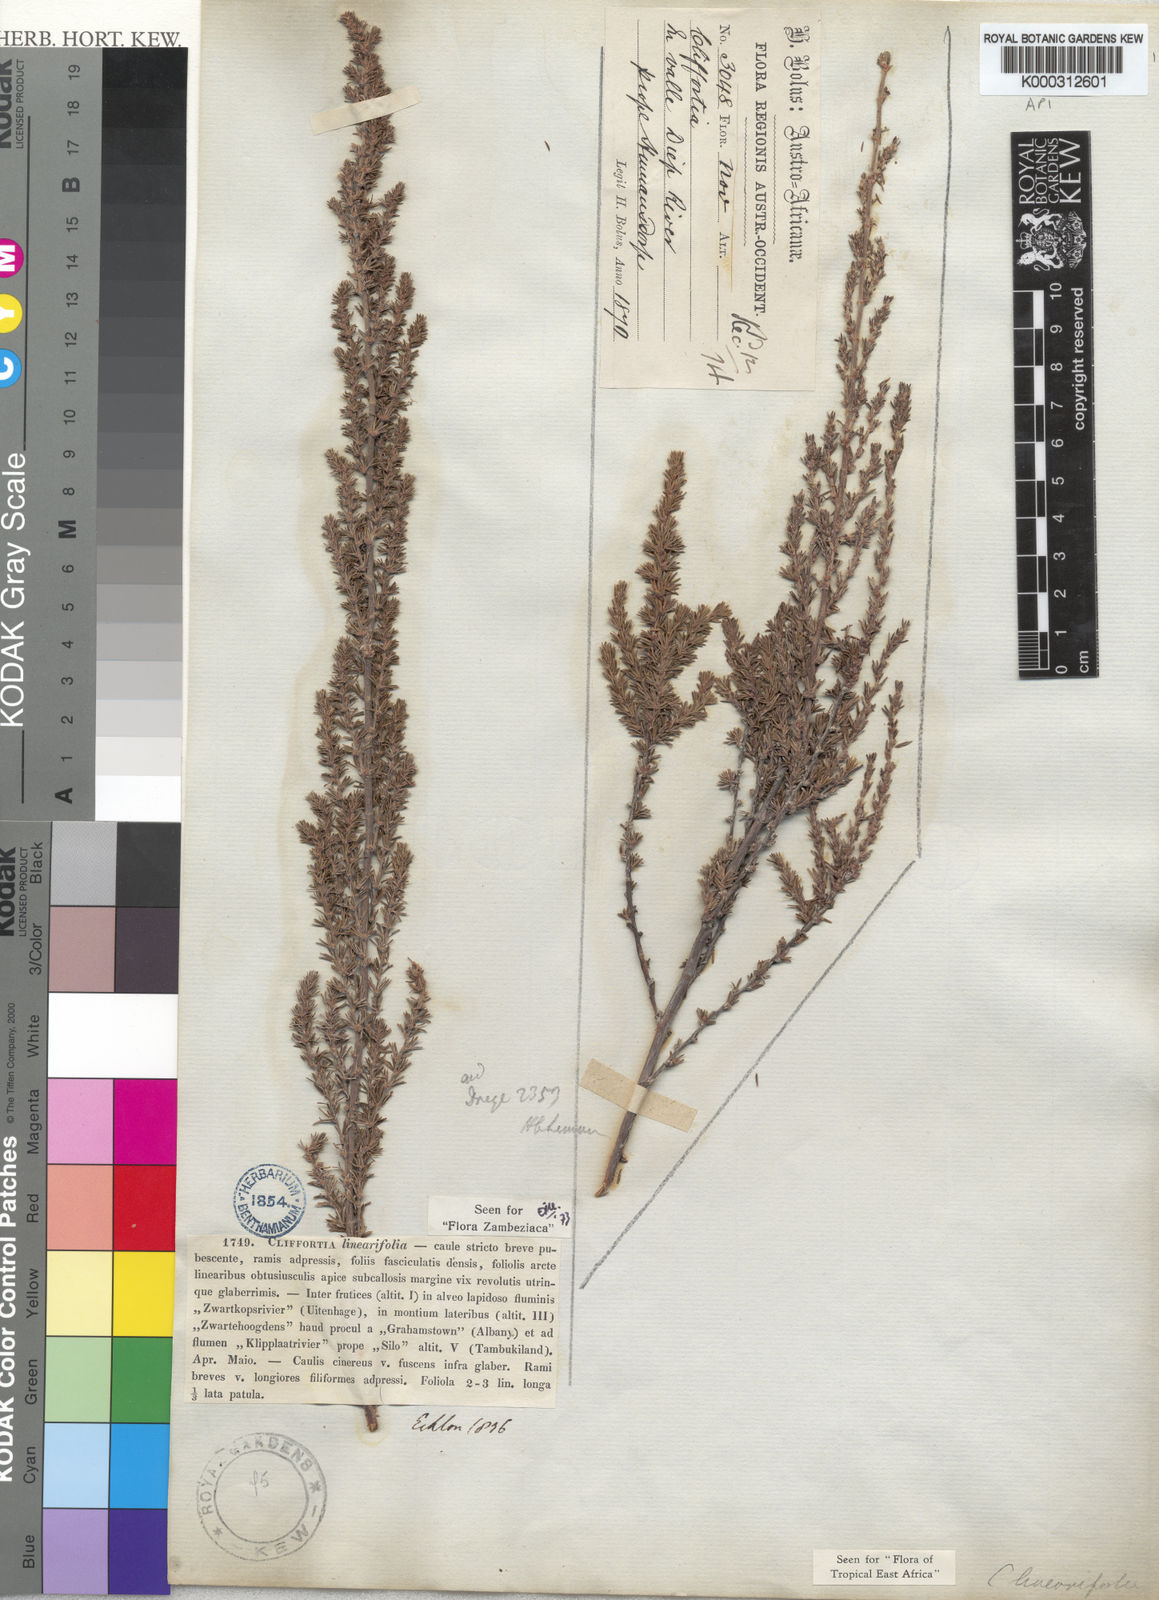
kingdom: Plantae
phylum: Tracheophyta
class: Magnoliopsida
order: Rosales
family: Rosaceae
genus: Cliffortia
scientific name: Cliffortia linearifolia
